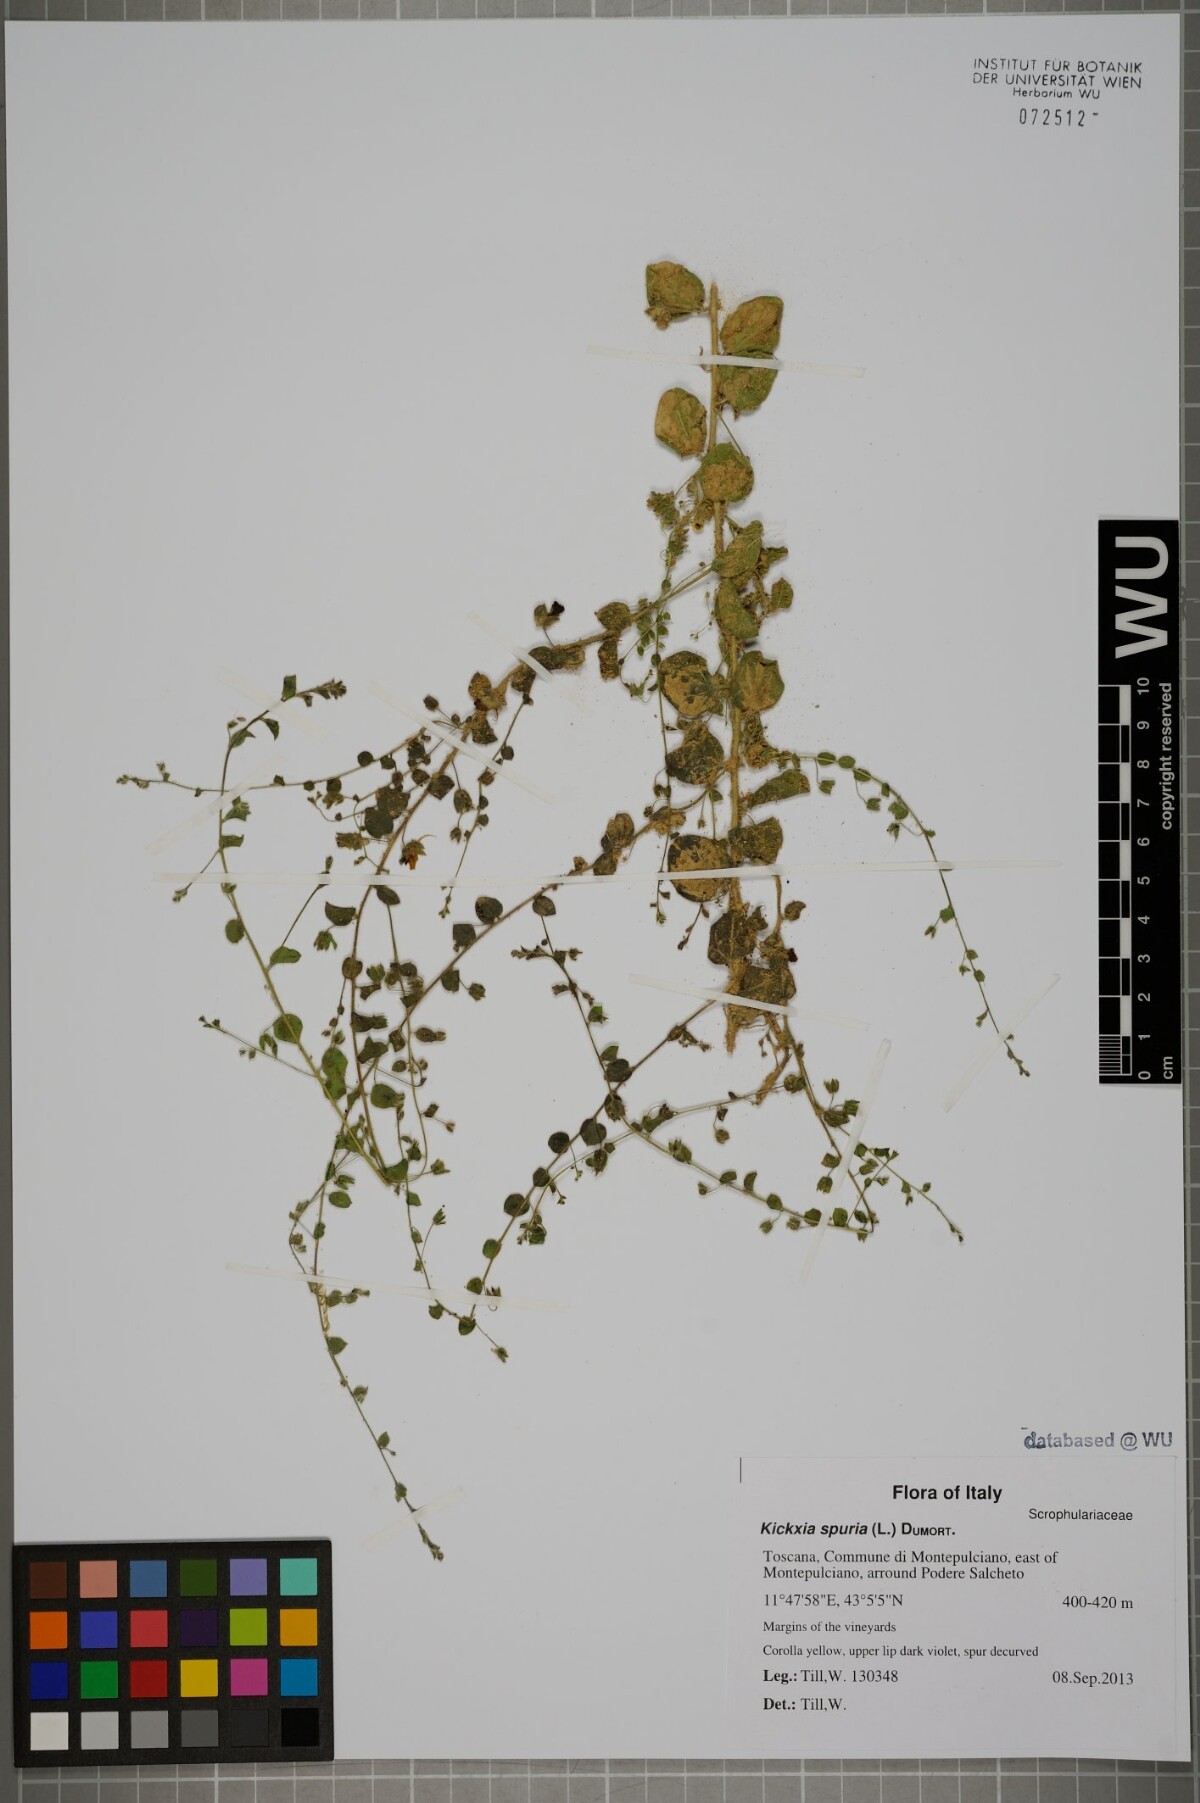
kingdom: Plantae
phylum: Tracheophyta
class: Magnoliopsida
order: Lamiales
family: Plantaginaceae
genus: Kickxia
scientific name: Kickxia spuria
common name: Round-leaved fluellen
